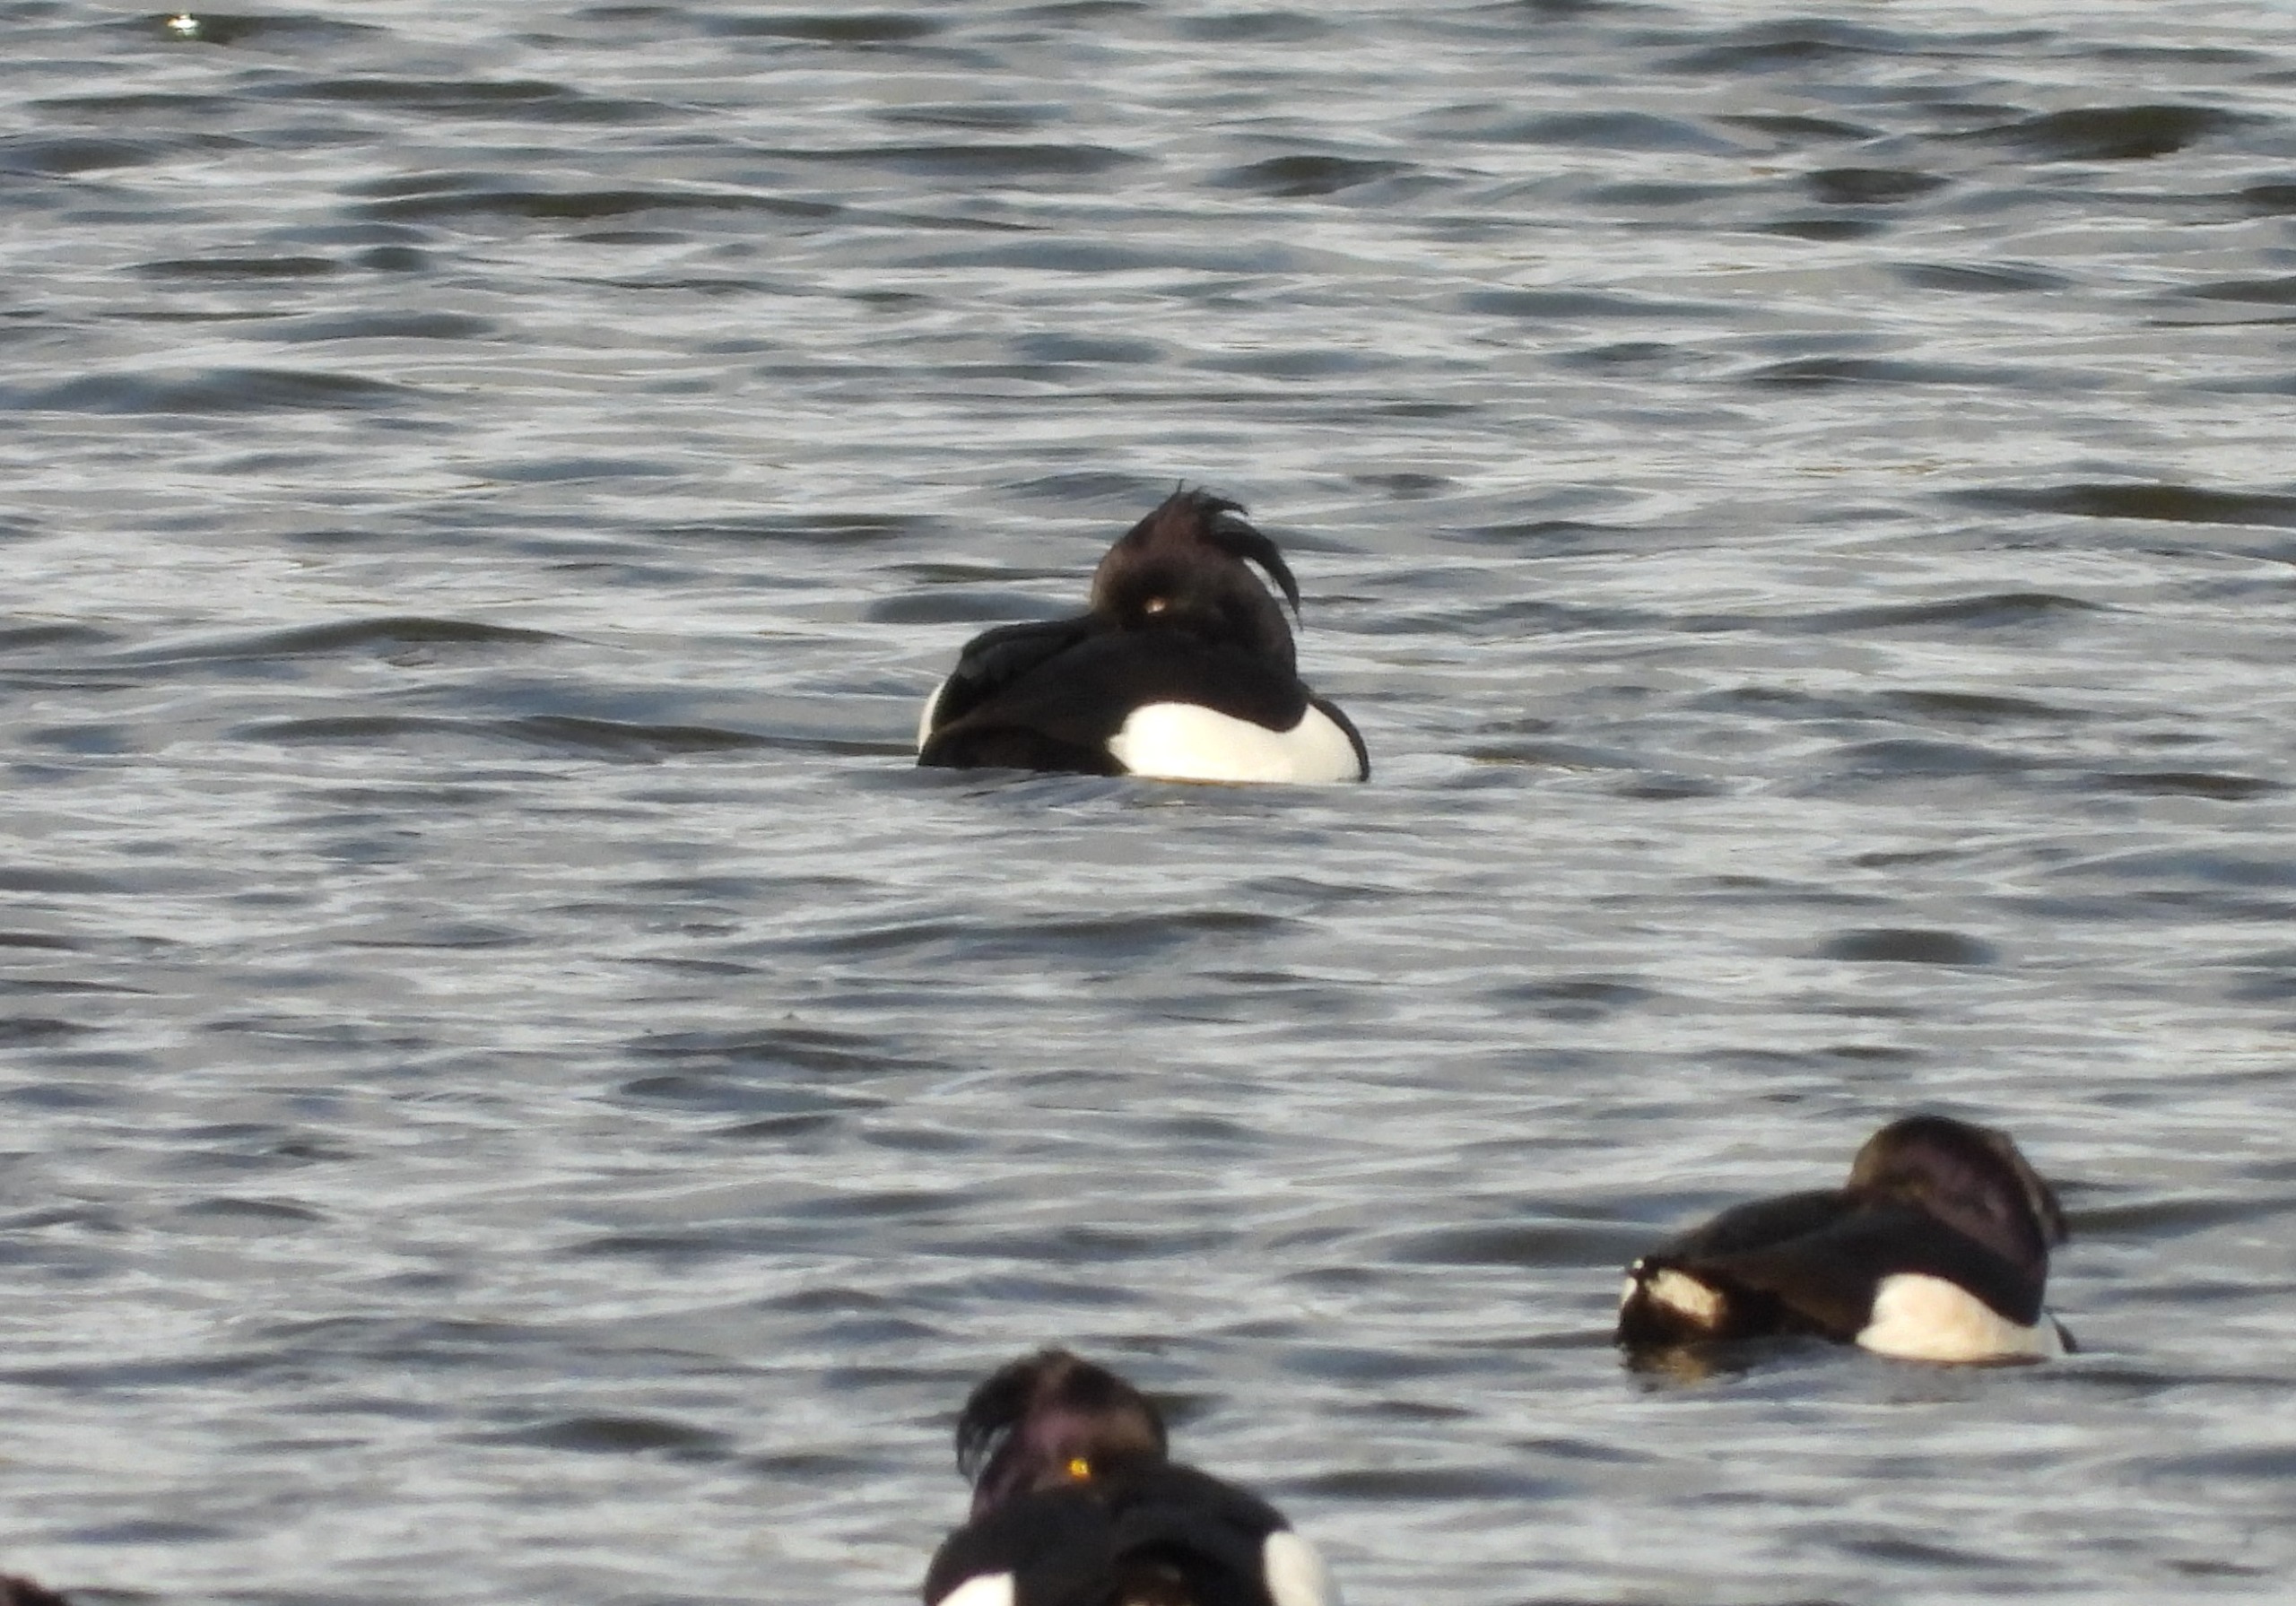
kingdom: Animalia
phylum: Chordata
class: Aves
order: Anseriformes
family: Anatidae
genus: Aythya
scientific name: Aythya fuligula
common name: Troldand
